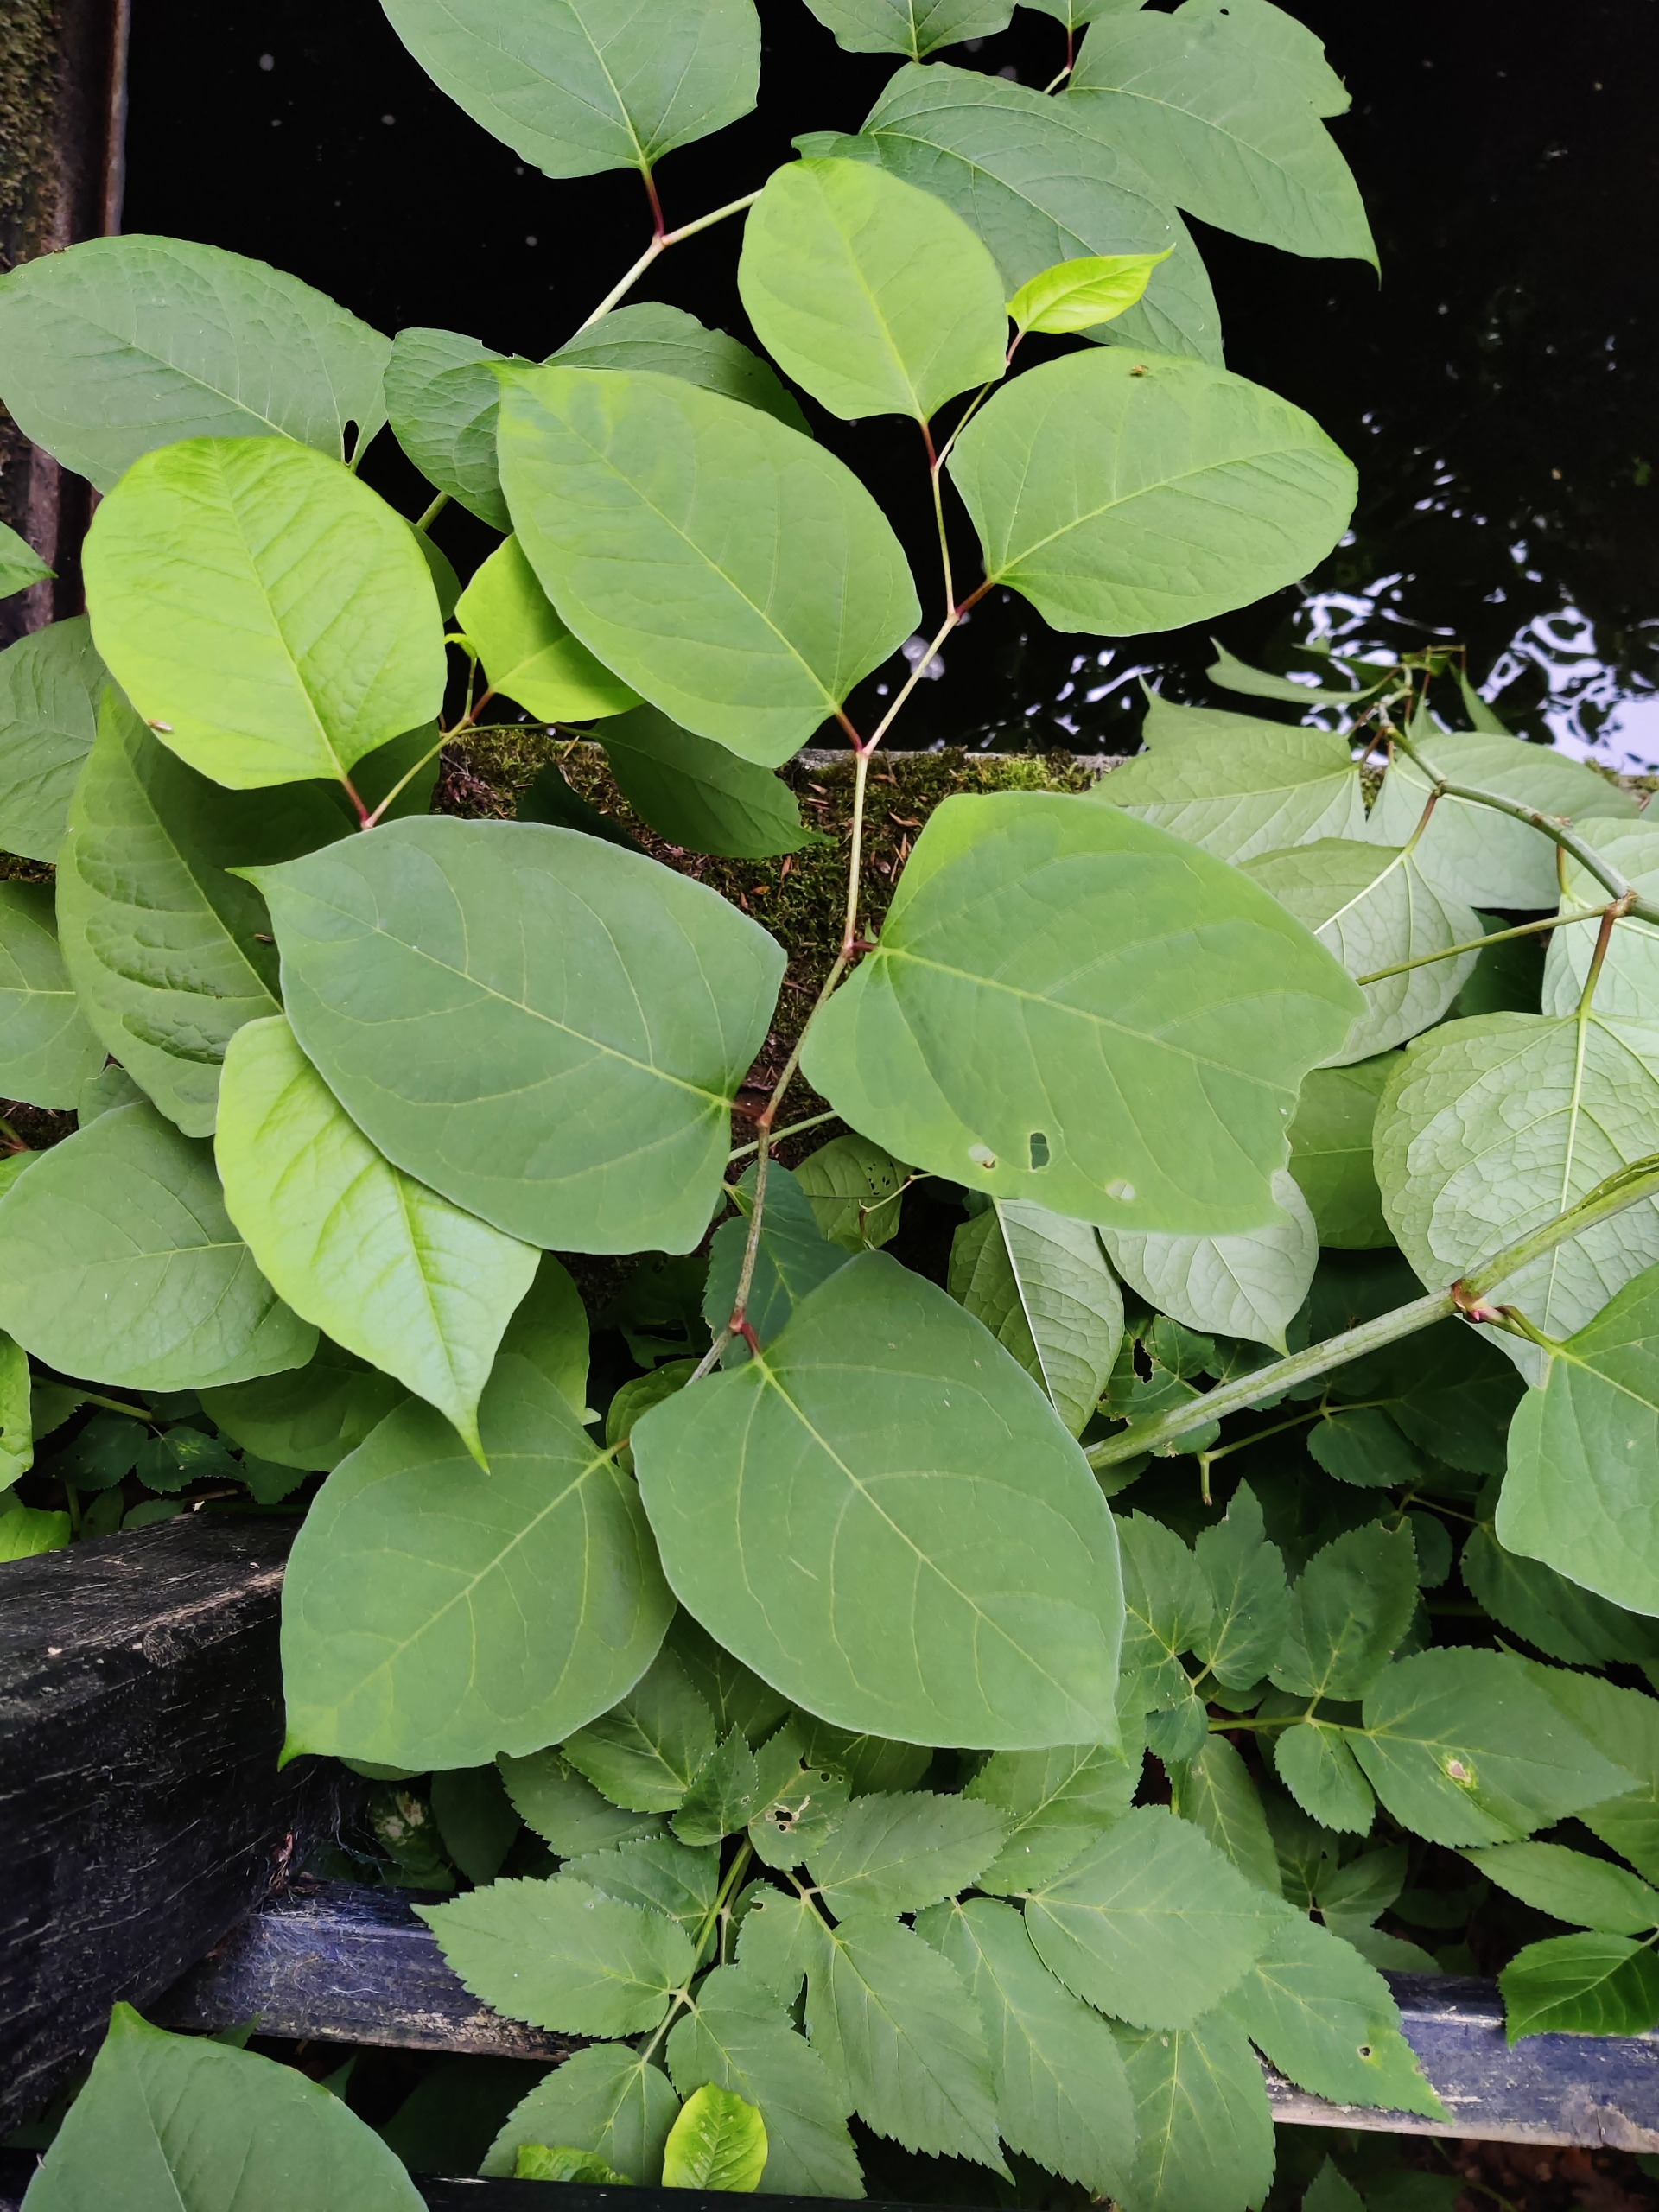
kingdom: Plantae
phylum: Tracheophyta
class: Magnoliopsida
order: Caryophyllales
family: Polygonaceae
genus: Reynoutria
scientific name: Reynoutria japonica
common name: Japan-pileurt
